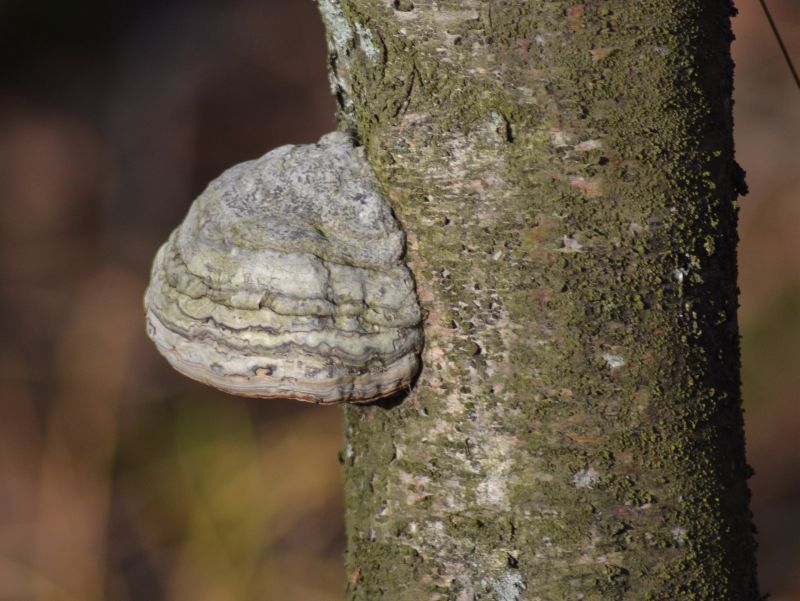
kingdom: Fungi
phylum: Basidiomycota
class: Agaricomycetes
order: Polyporales
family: Polyporaceae
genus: Fomes
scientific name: Fomes fomentarius
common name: tøndersvamp
